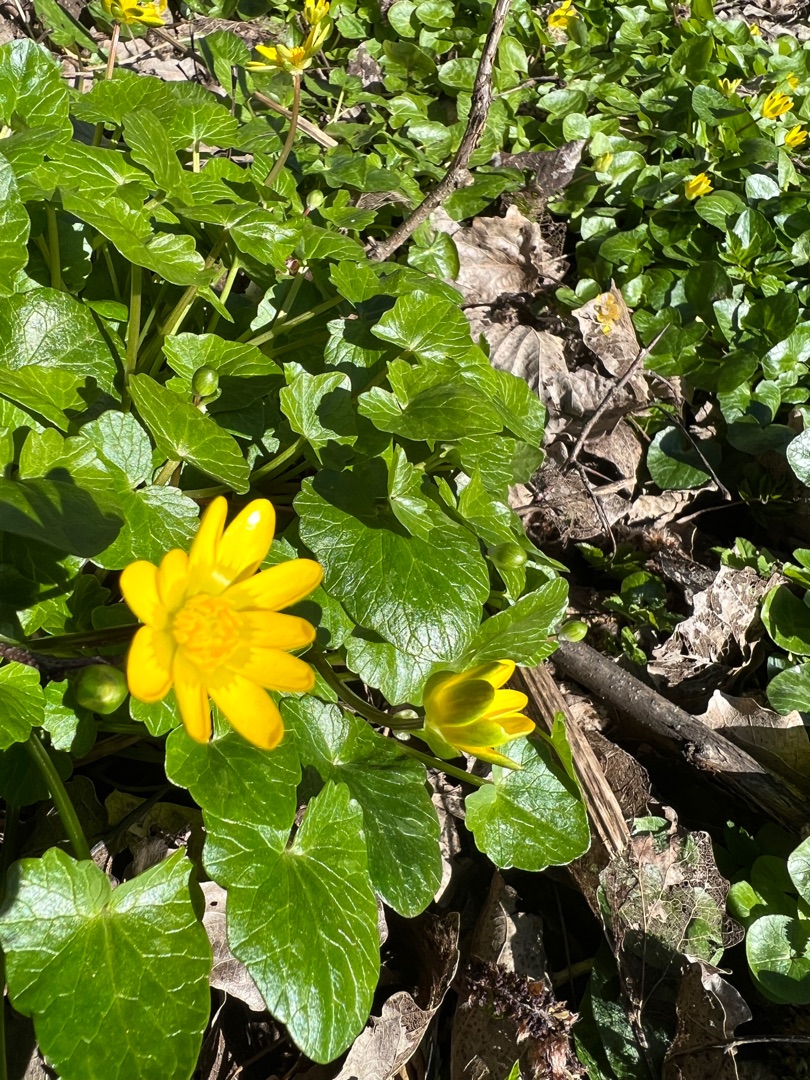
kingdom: Plantae
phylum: Tracheophyta
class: Magnoliopsida
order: Ranunculales
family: Ranunculaceae
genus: Ficaria
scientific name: Ficaria verna
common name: Vorterod
